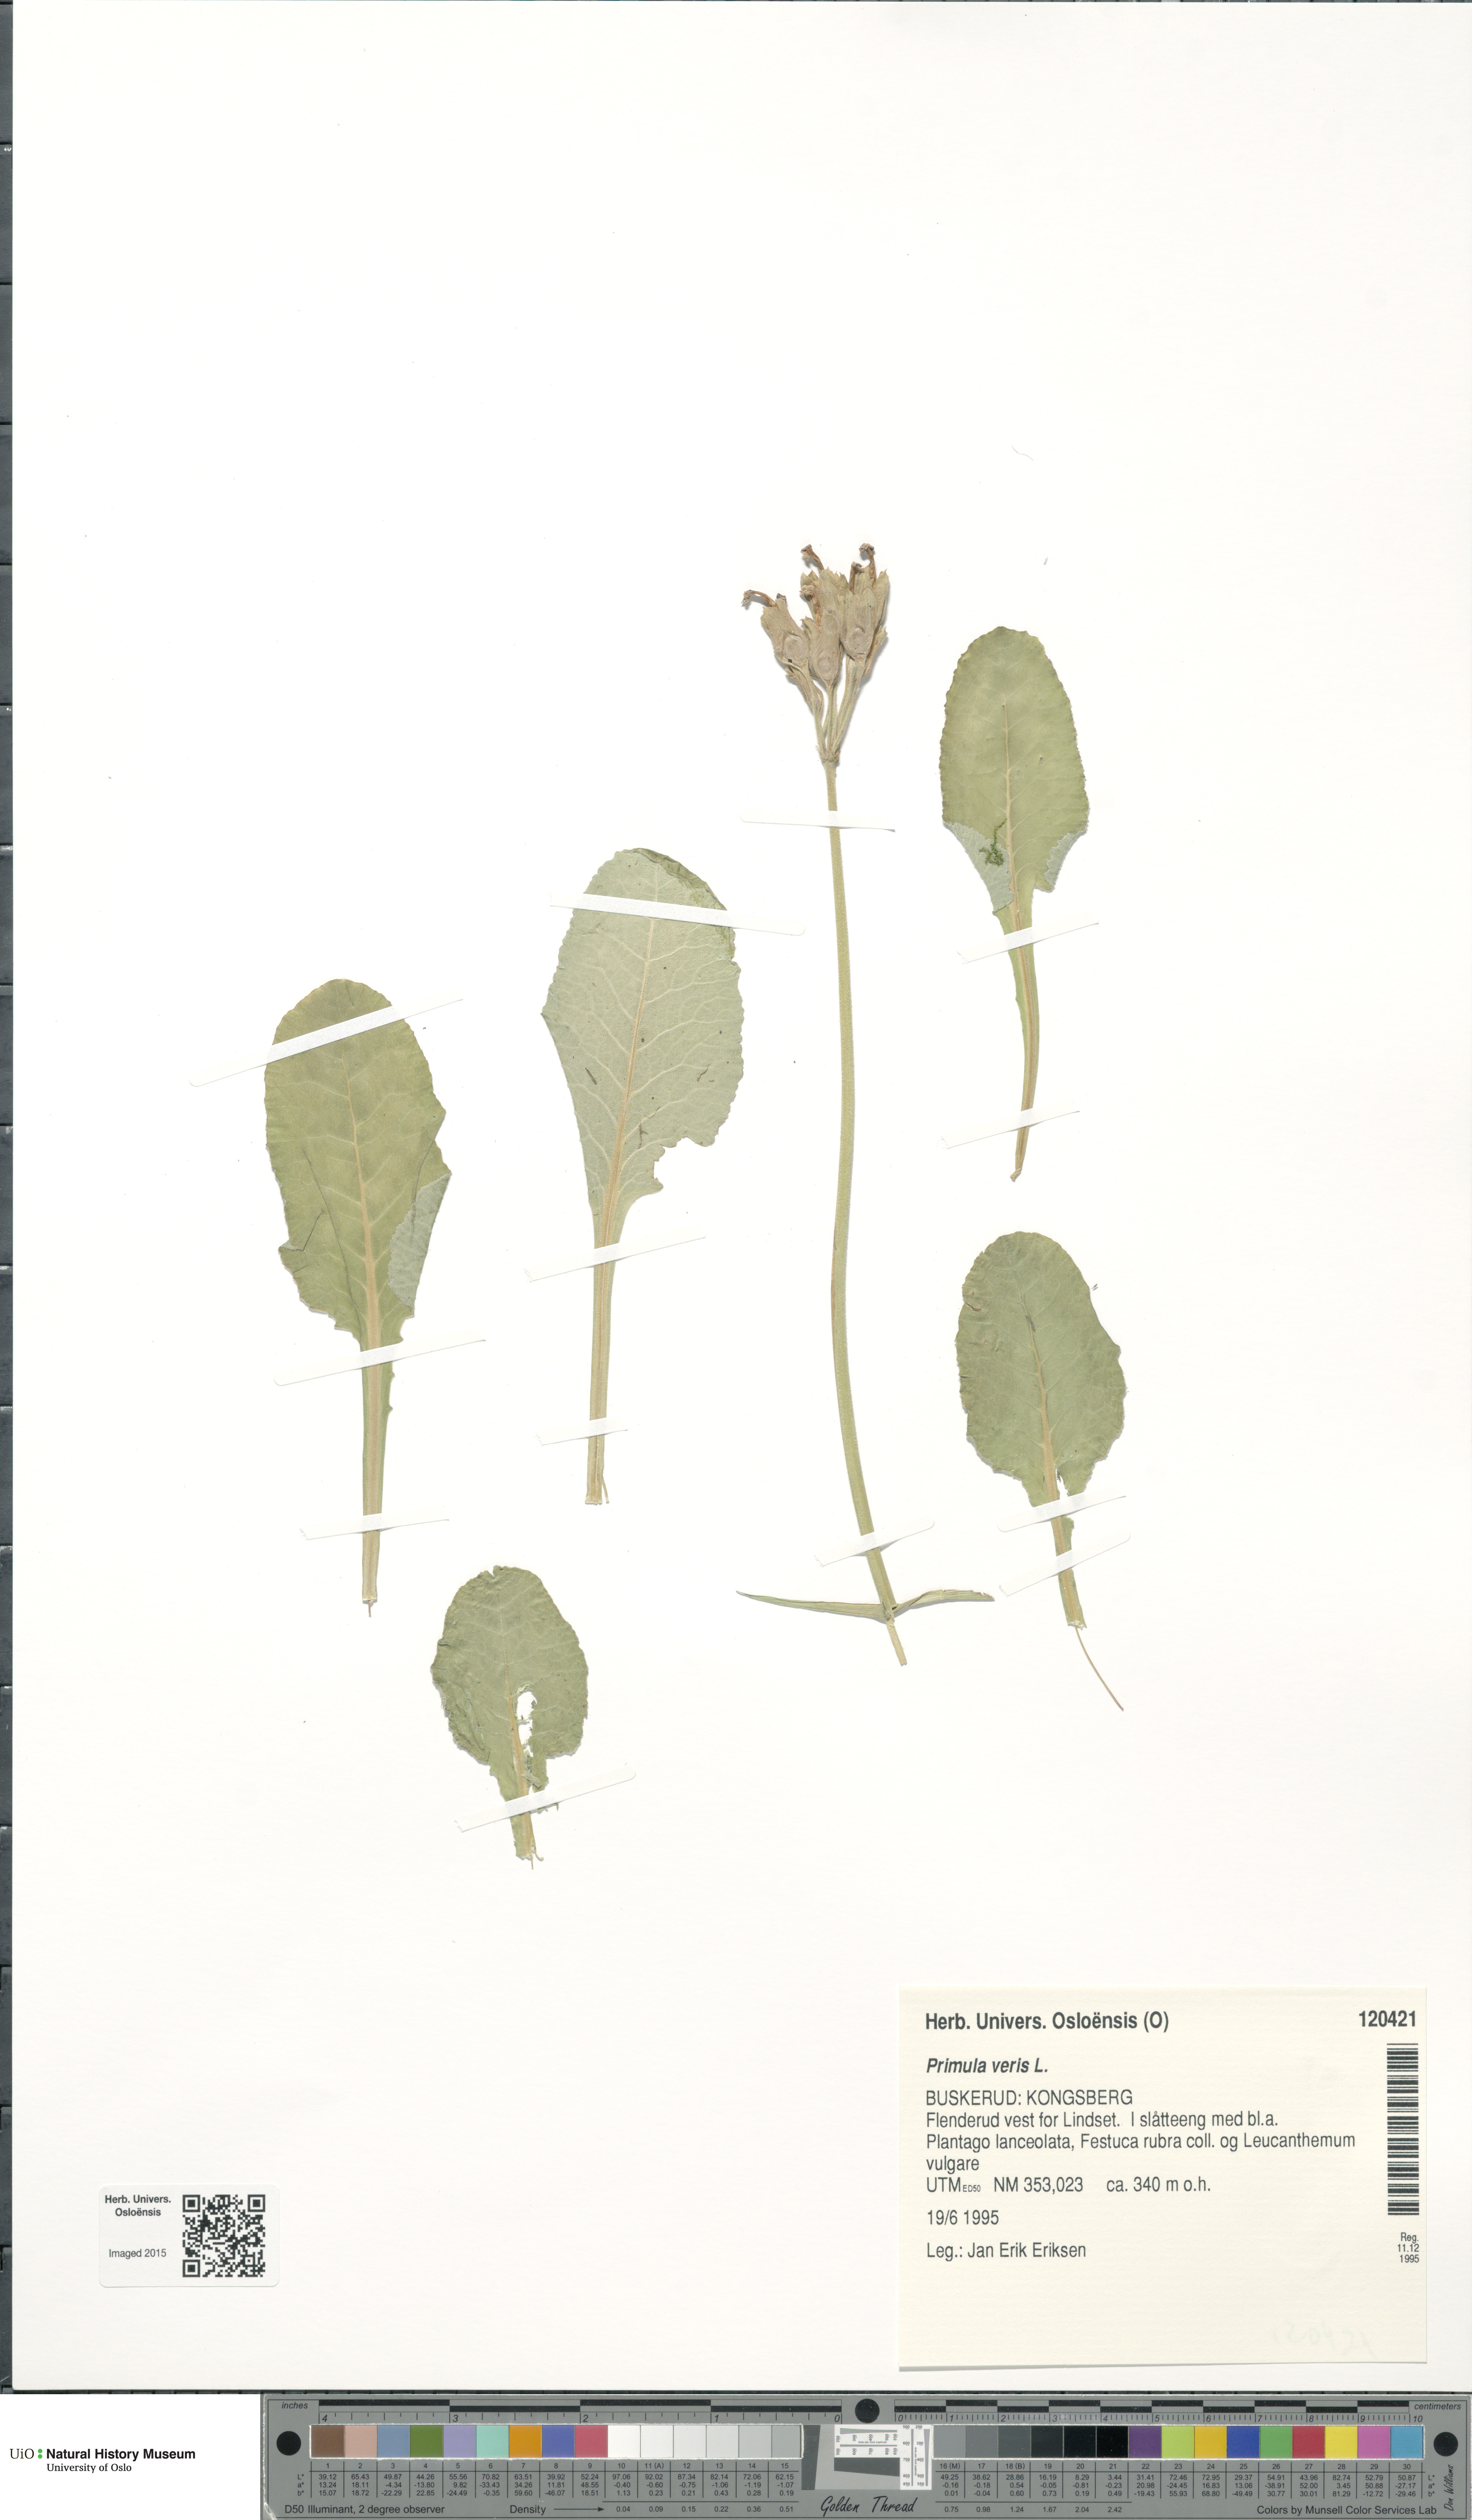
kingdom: Plantae
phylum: Tracheophyta
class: Magnoliopsida
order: Ericales
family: Primulaceae
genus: Primula
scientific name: Primula veris
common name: Cowslip
